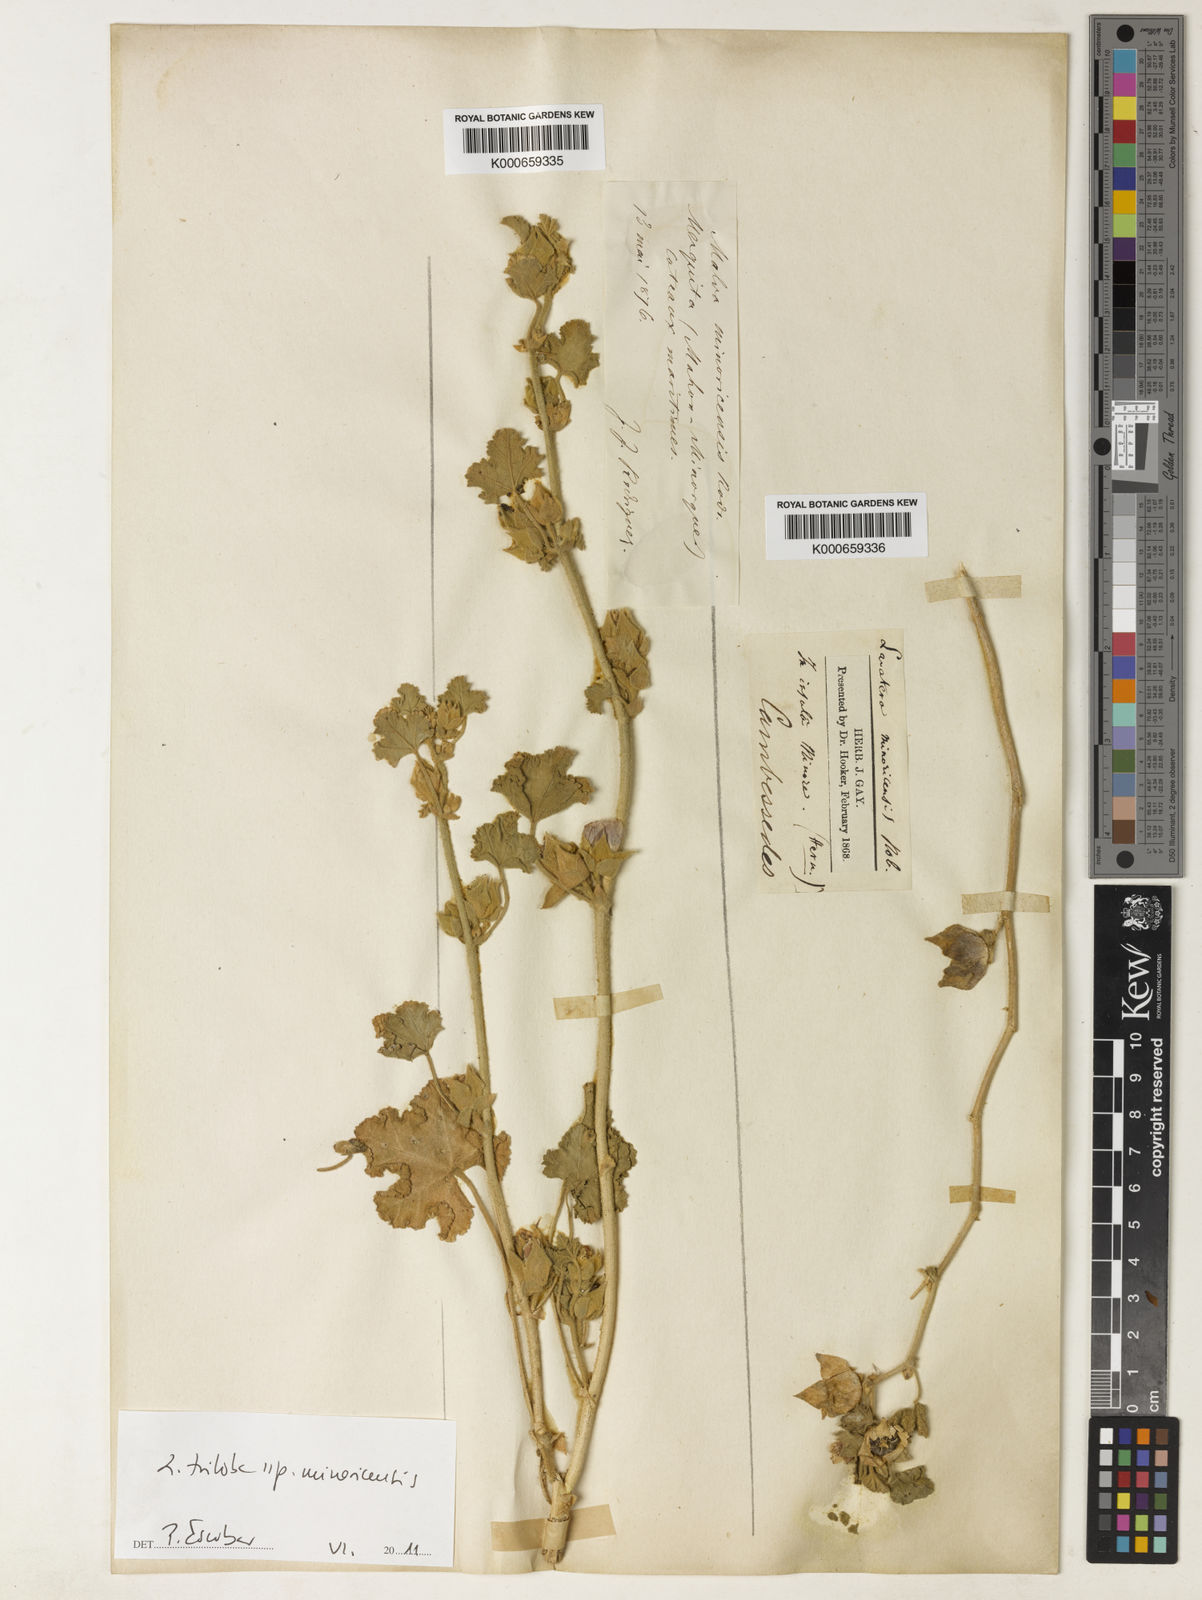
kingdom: Plantae
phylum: Tracheophyta
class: Magnoliopsida
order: Malvales
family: Malvaceae
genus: Malva
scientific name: Malva
